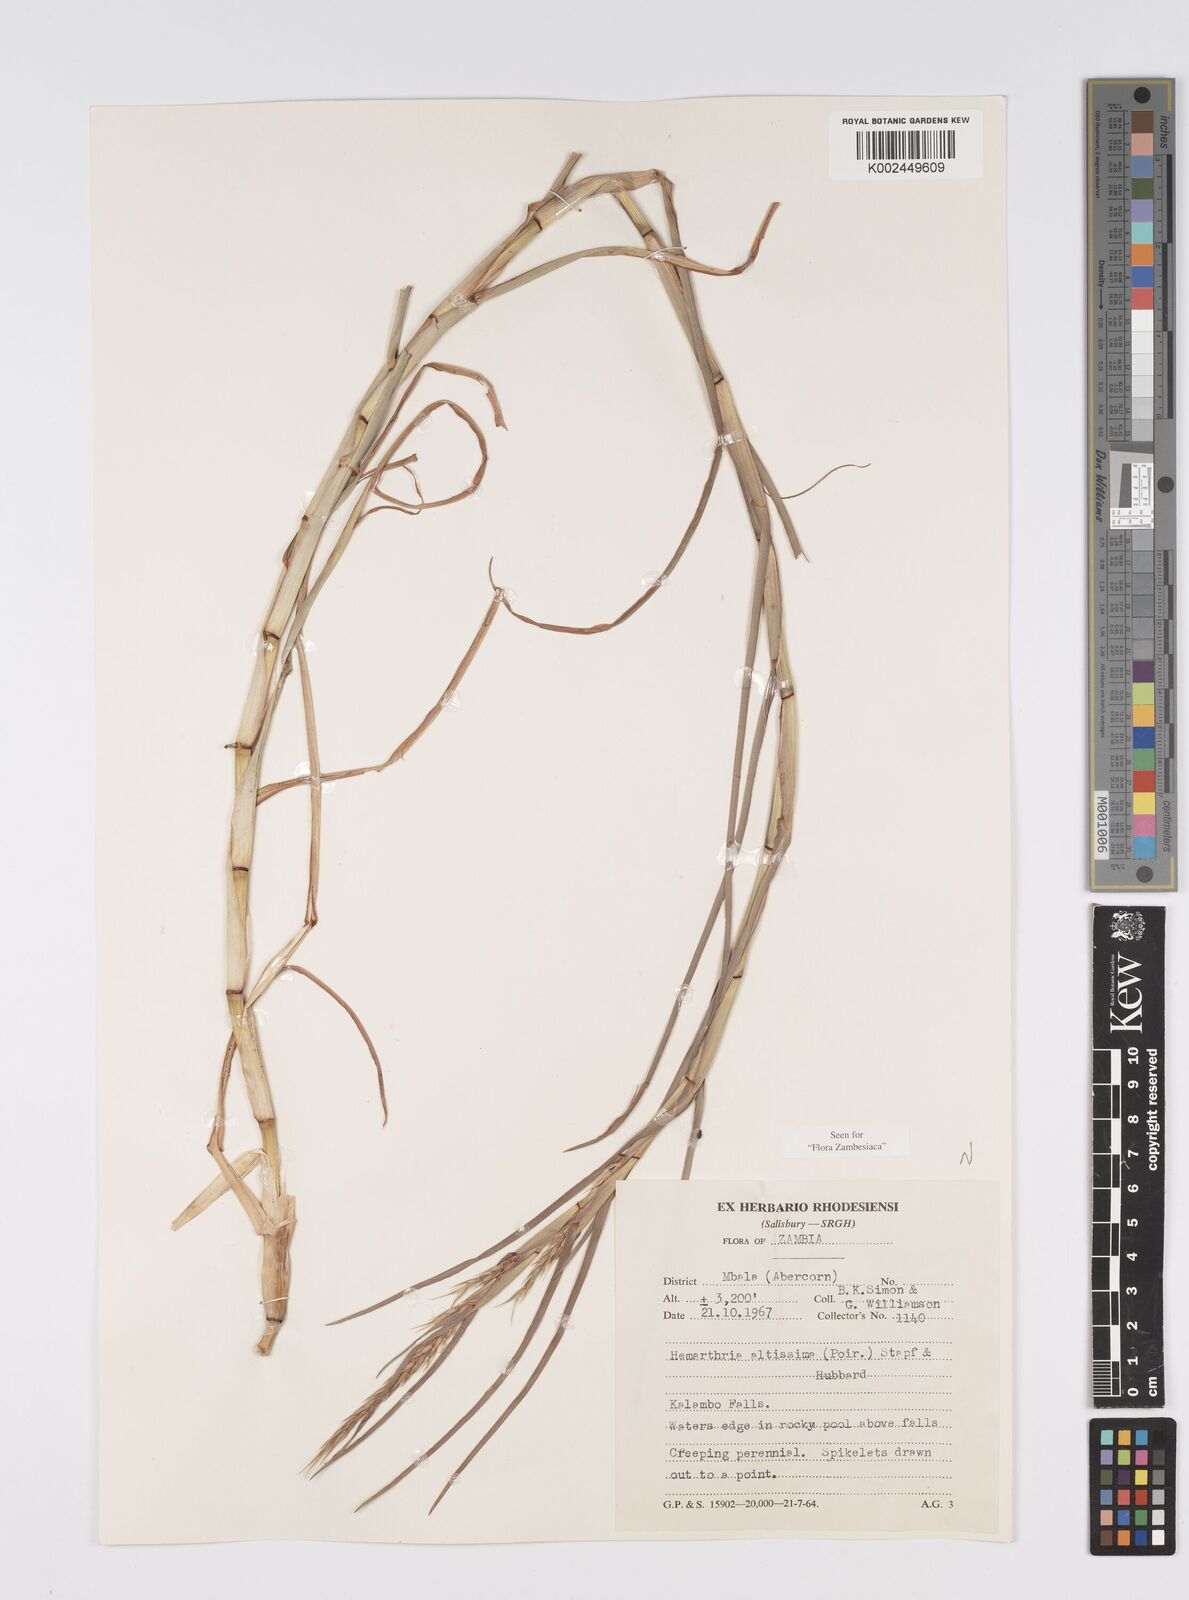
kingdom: Plantae
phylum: Tracheophyta
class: Liliopsida
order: Poales
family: Poaceae
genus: Hemarthria
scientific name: Hemarthria natans
